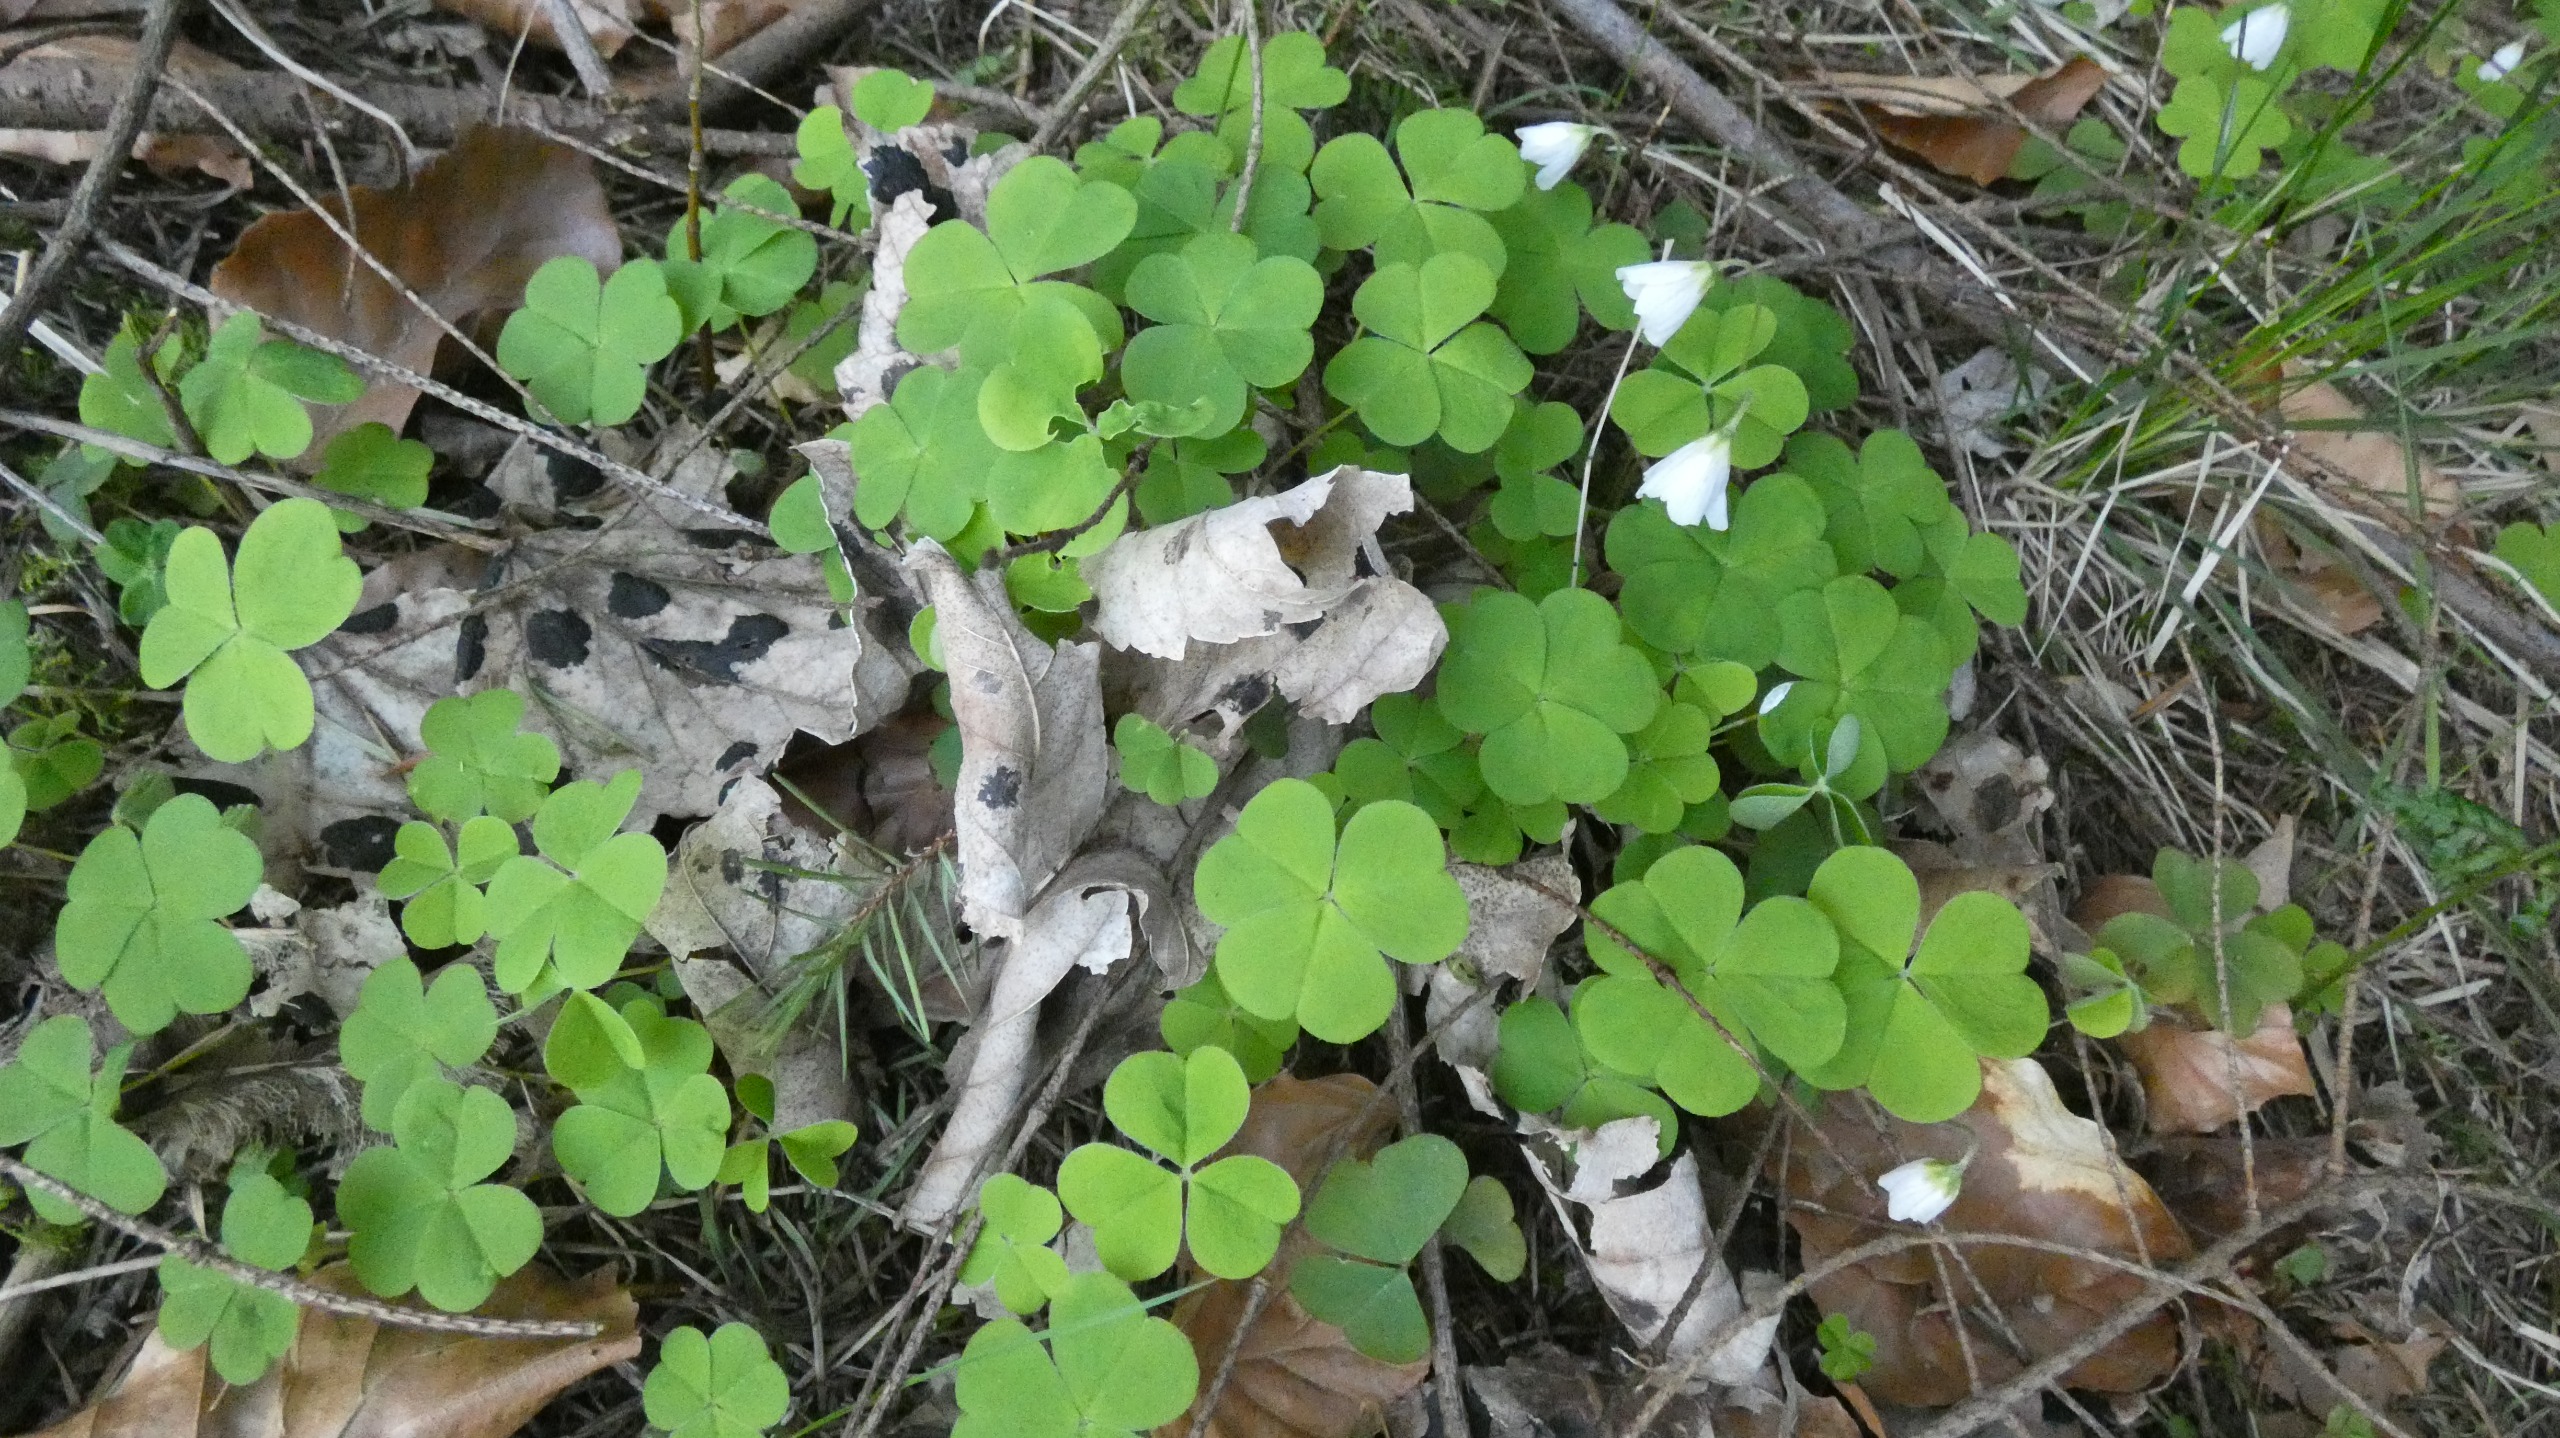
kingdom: Plantae
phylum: Tracheophyta
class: Magnoliopsida
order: Oxalidales
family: Oxalidaceae
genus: Oxalis
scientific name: Oxalis acetosella
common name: Skovsyre
